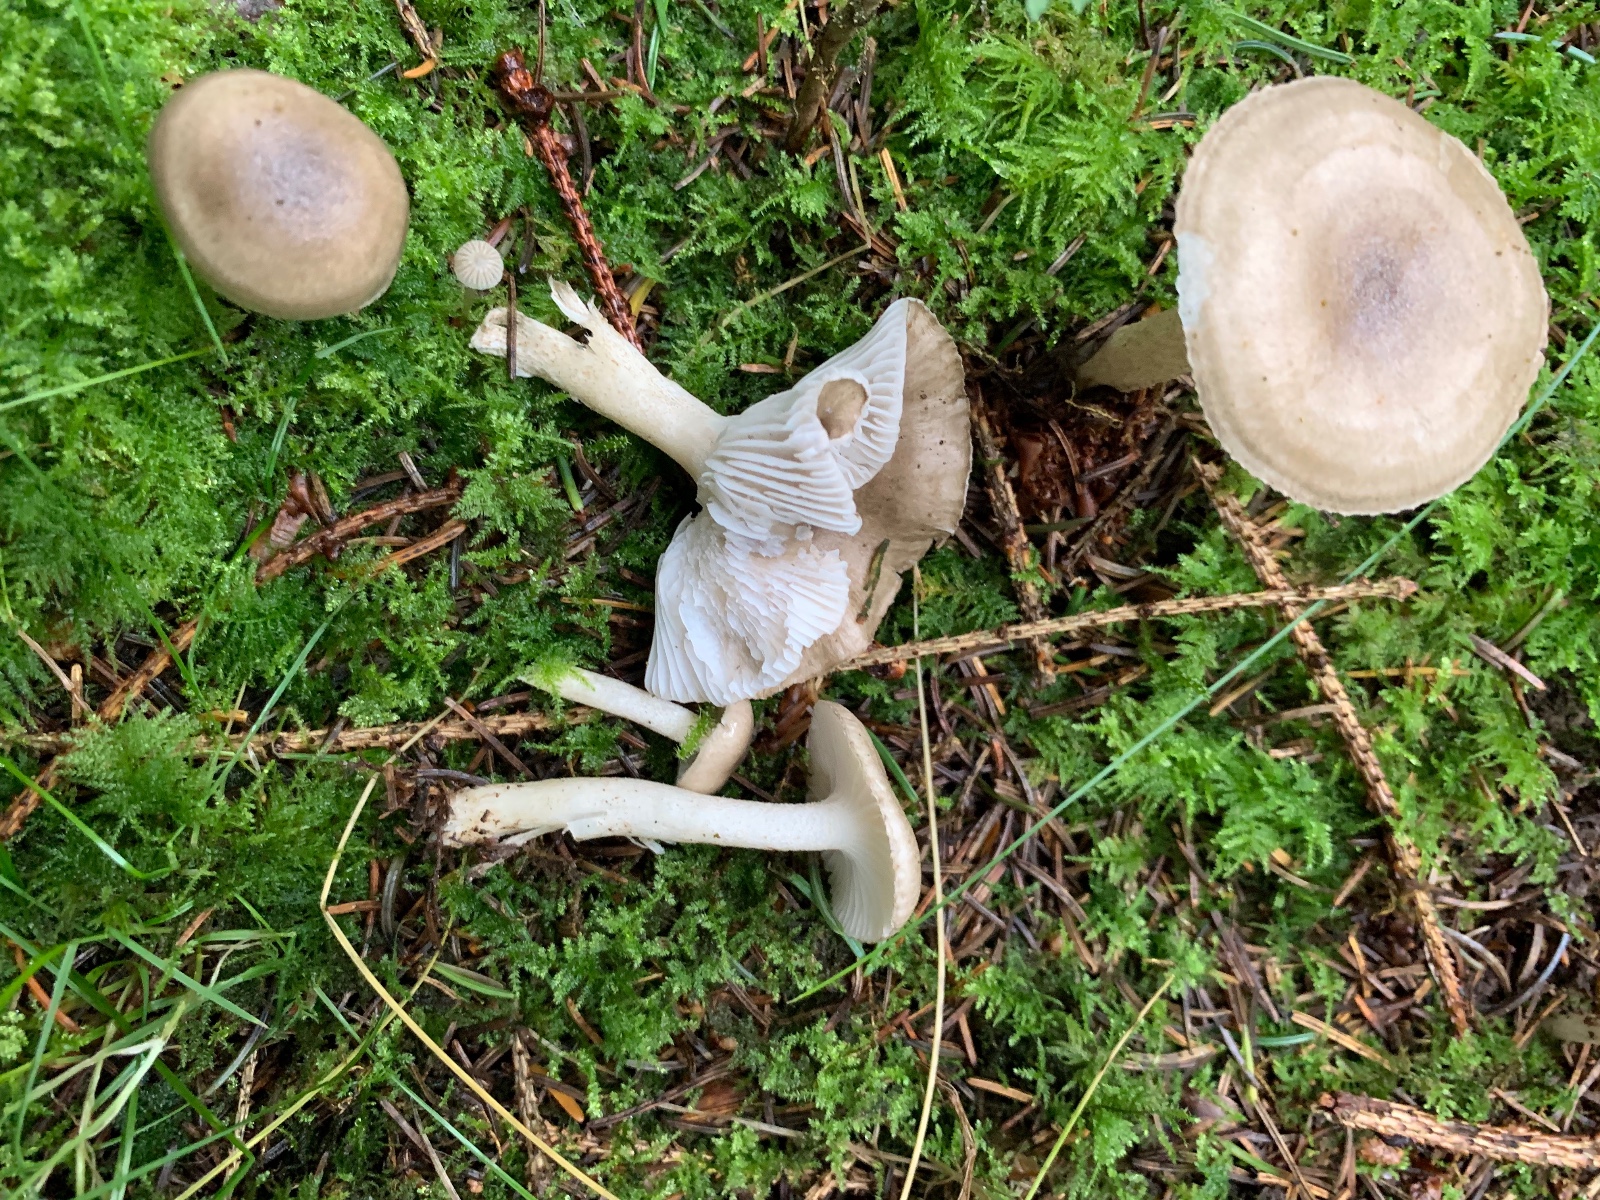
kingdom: Fungi
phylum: Basidiomycota
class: Agaricomycetes
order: Agaricales
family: Hygrophoraceae
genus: Hygrophorus
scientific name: Hygrophorus pustulatus
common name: mørkprikket sneglehat
